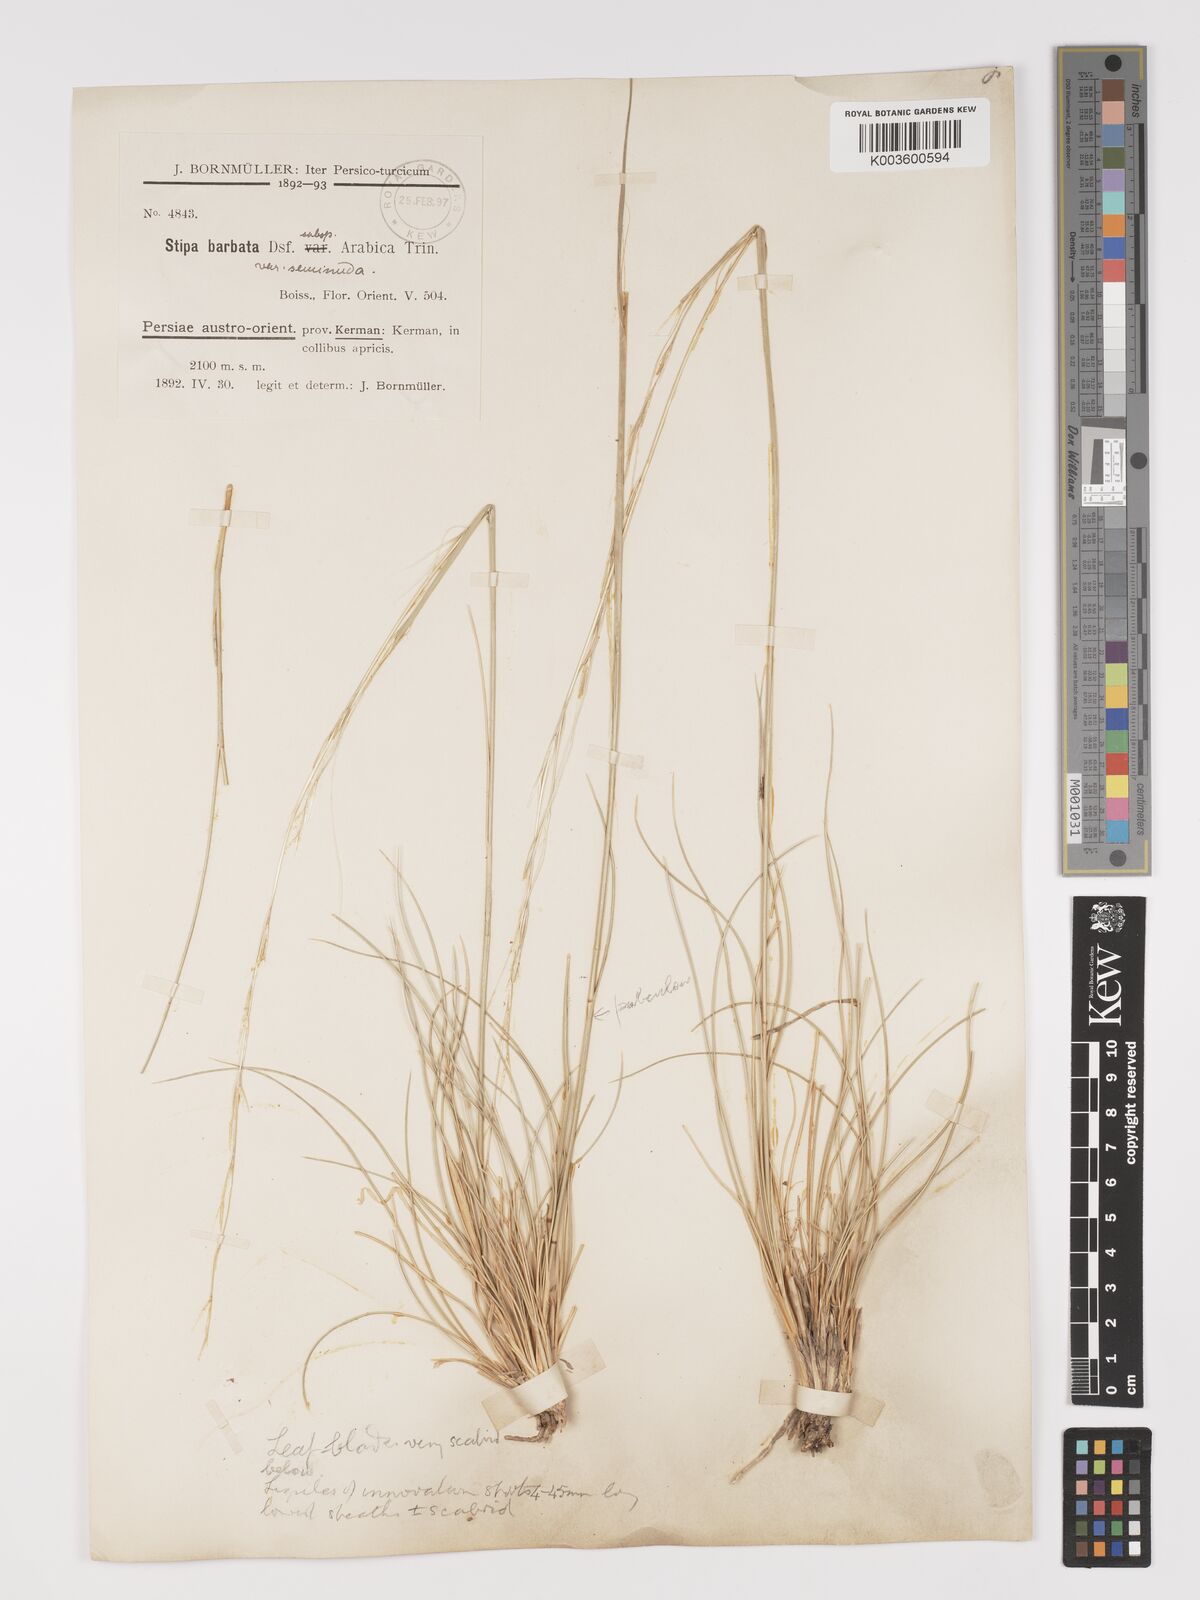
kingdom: Plantae
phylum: Tracheophyta
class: Liliopsida
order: Poales
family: Poaceae
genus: Stipa
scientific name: Stipa barbata
